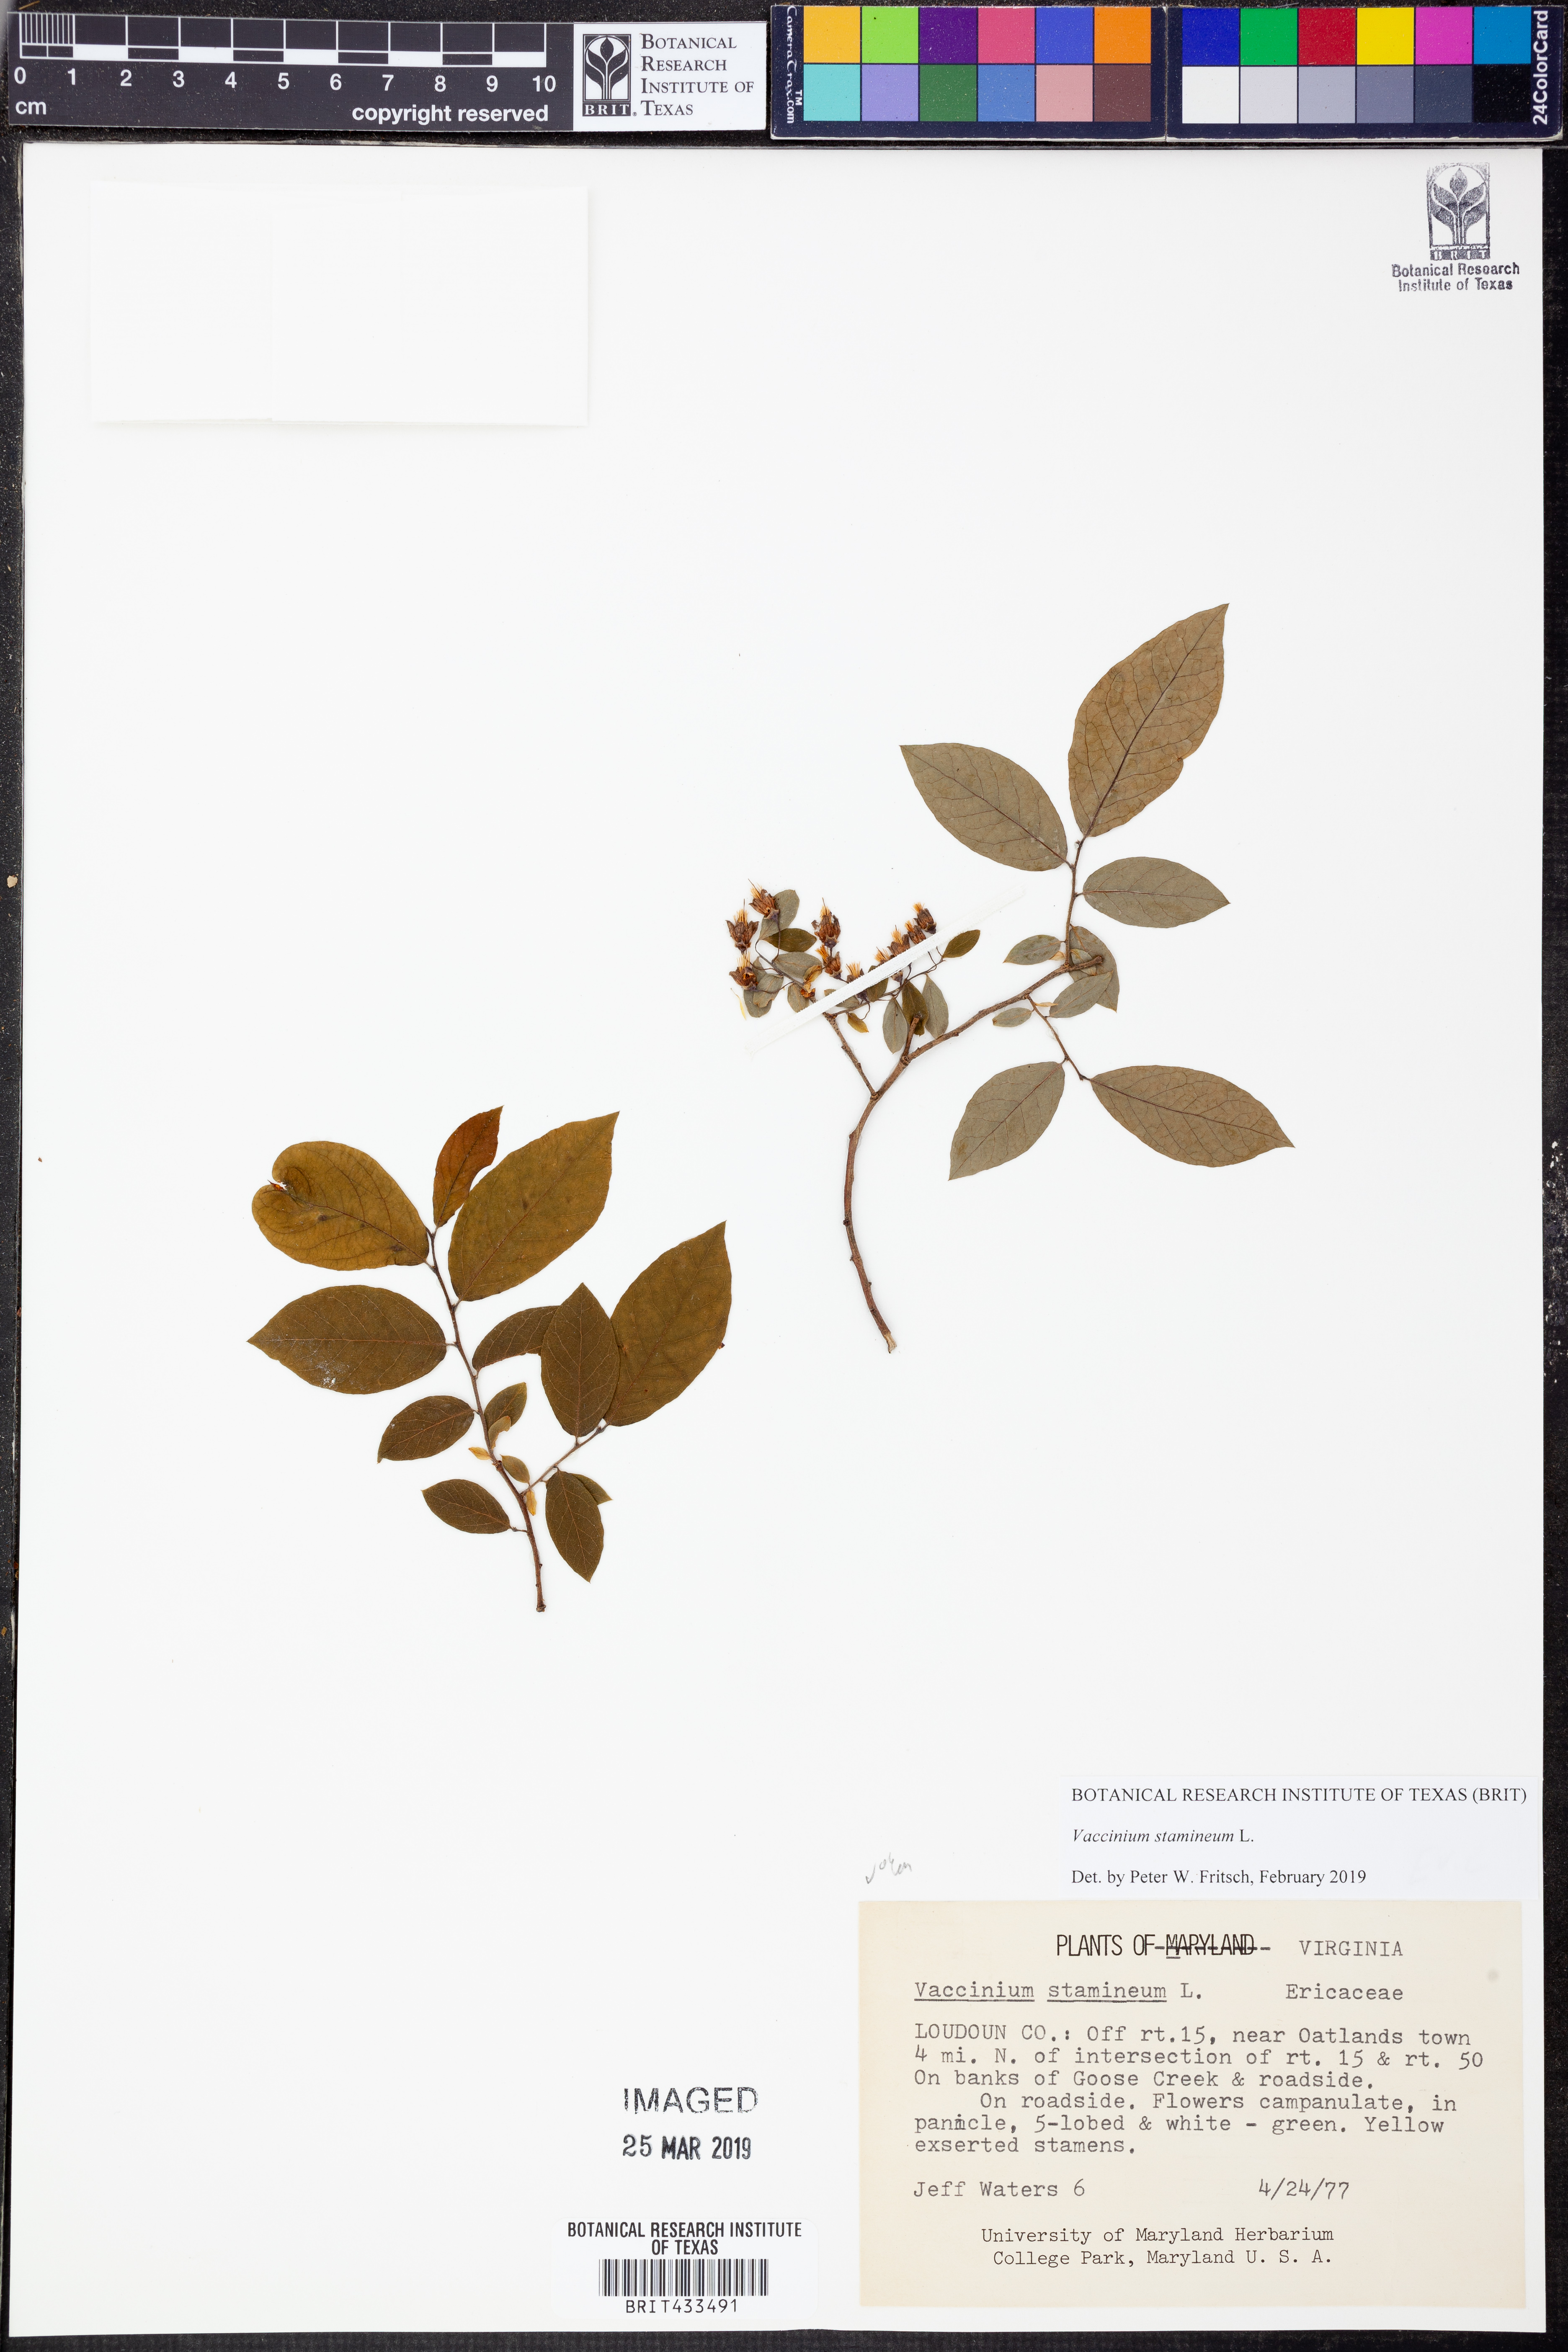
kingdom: Plantae
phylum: Tracheophyta
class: Magnoliopsida
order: Ericales
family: Ericaceae
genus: Vaccinium
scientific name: Vaccinium stamineum
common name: Deerberry
